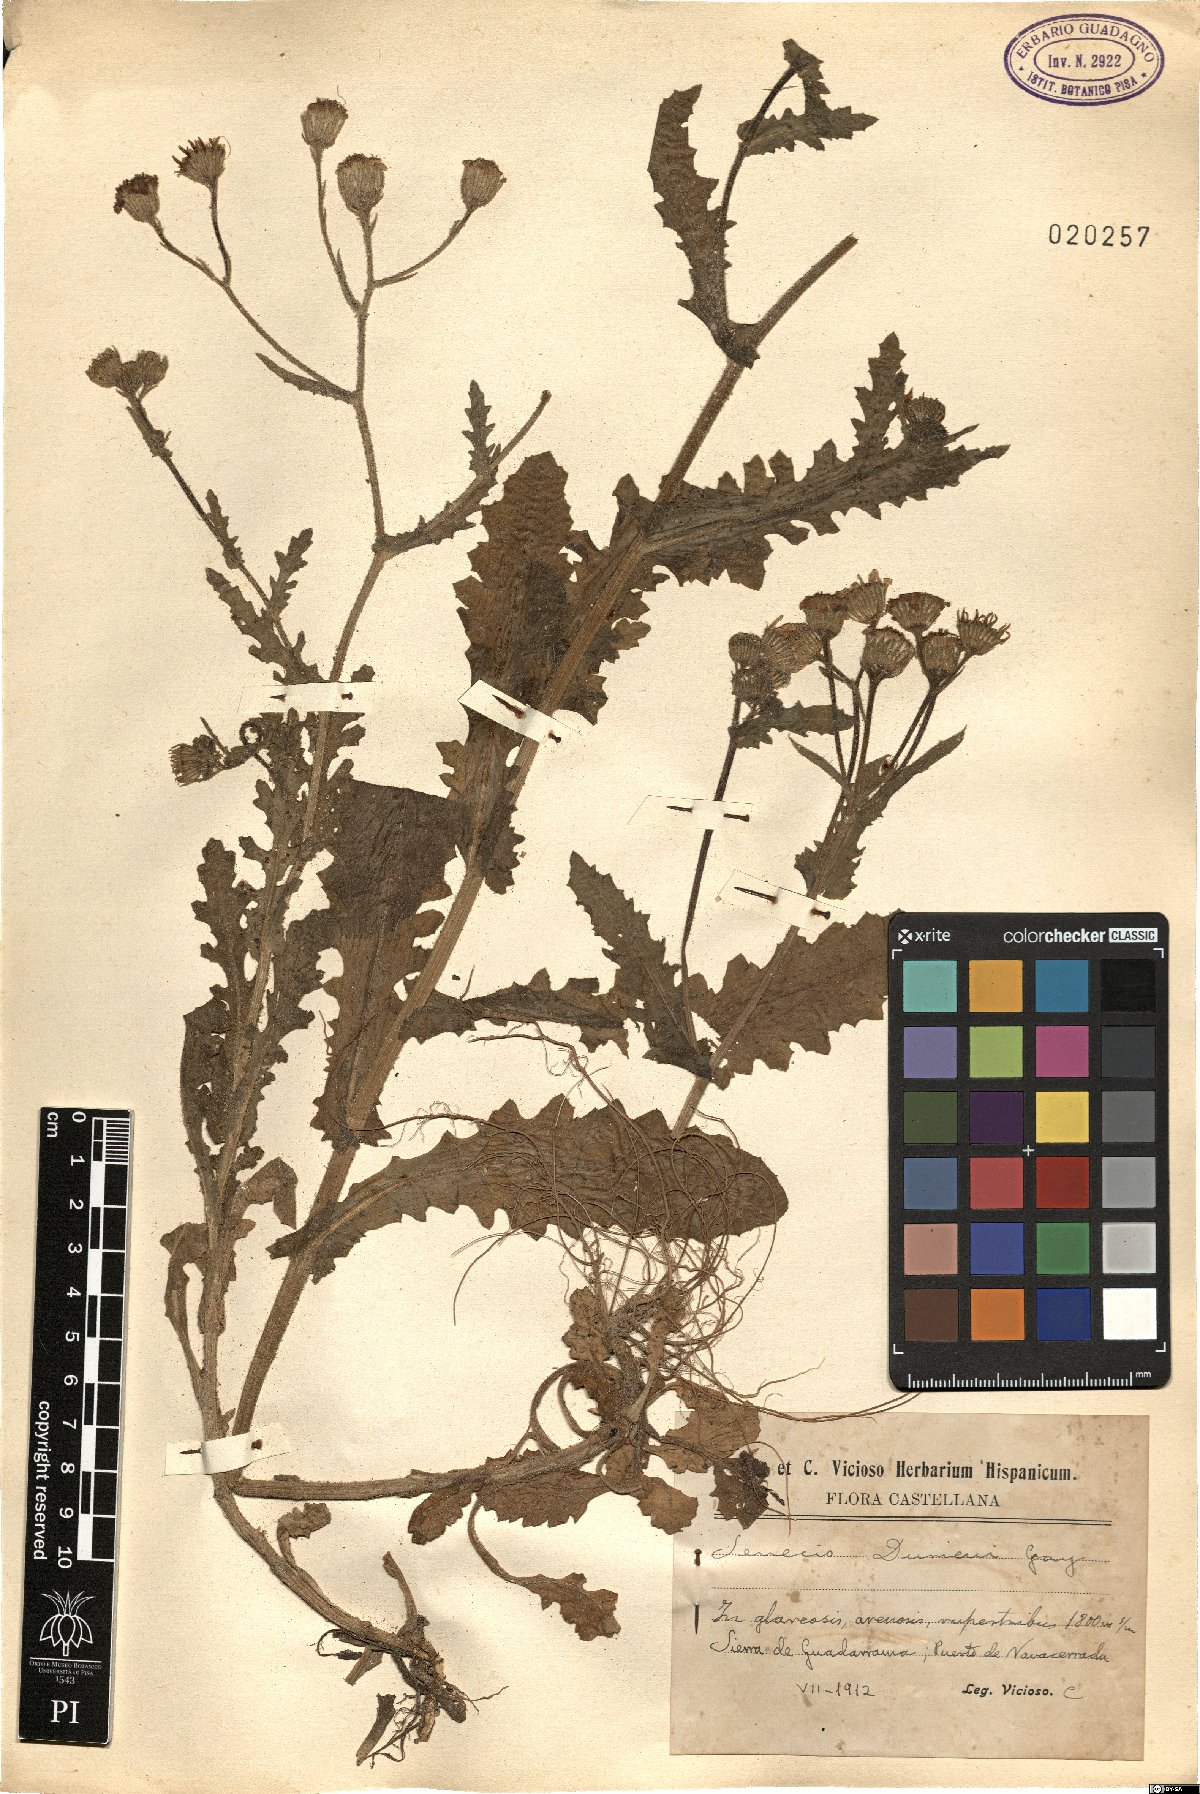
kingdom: Plantae
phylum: Tracheophyta
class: Magnoliopsida
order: Asterales
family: Asteraceae
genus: Senecio
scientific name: Senecio duriaei
